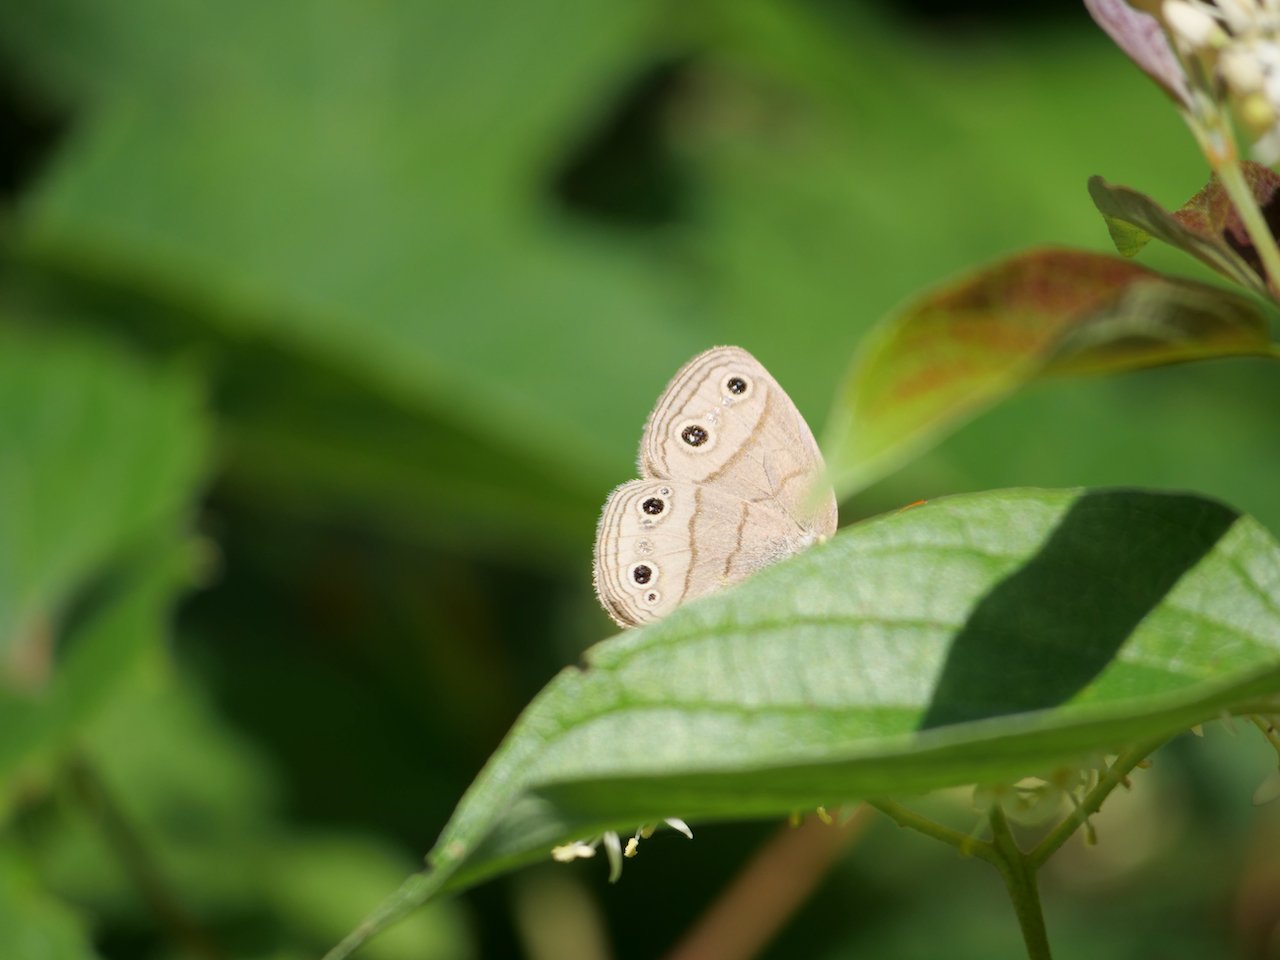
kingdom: Animalia
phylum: Arthropoda
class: Insecta
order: Lepidoptera
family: Nymphalidae
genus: Euptychia
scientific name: Euptychia cymela
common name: Little Wood Satyr
